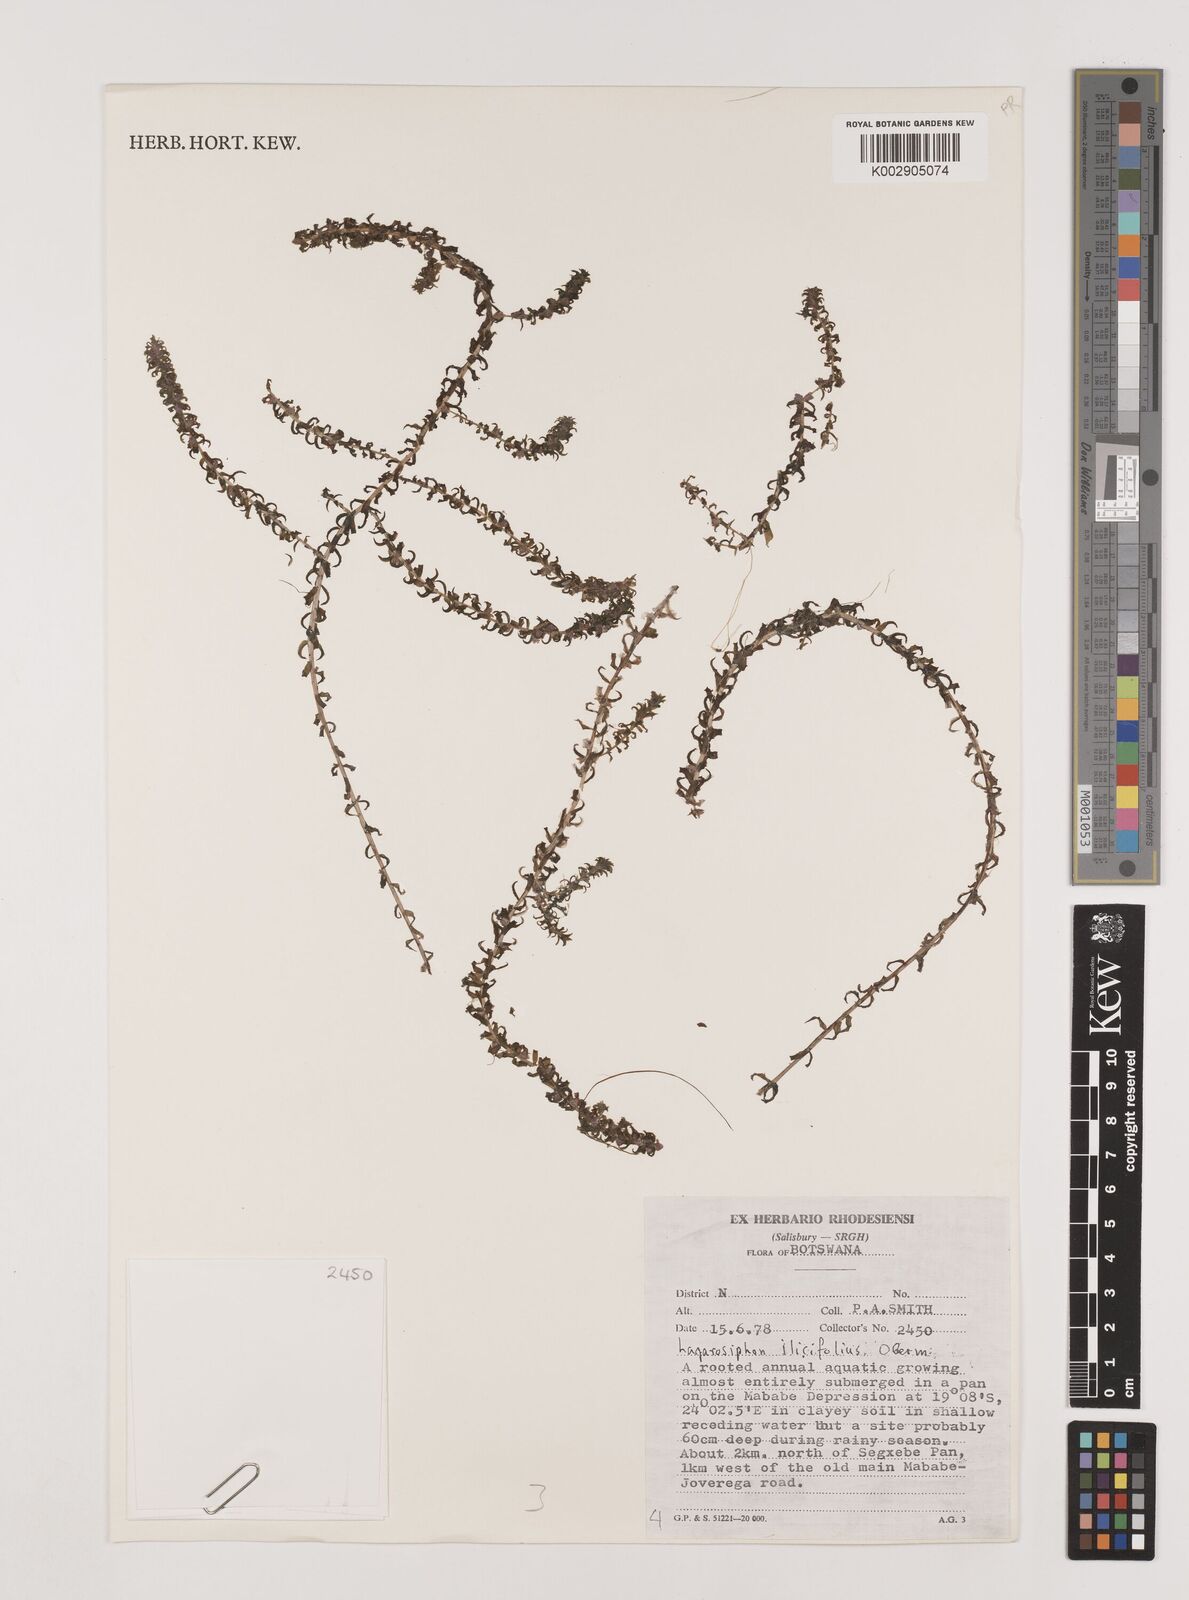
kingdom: Plantae
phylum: Tracheophyta
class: Liliopsida
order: Alismatales
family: Hydrocharitaceae
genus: Lagarosiphon
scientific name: Lagarosiphon ilicifolius
